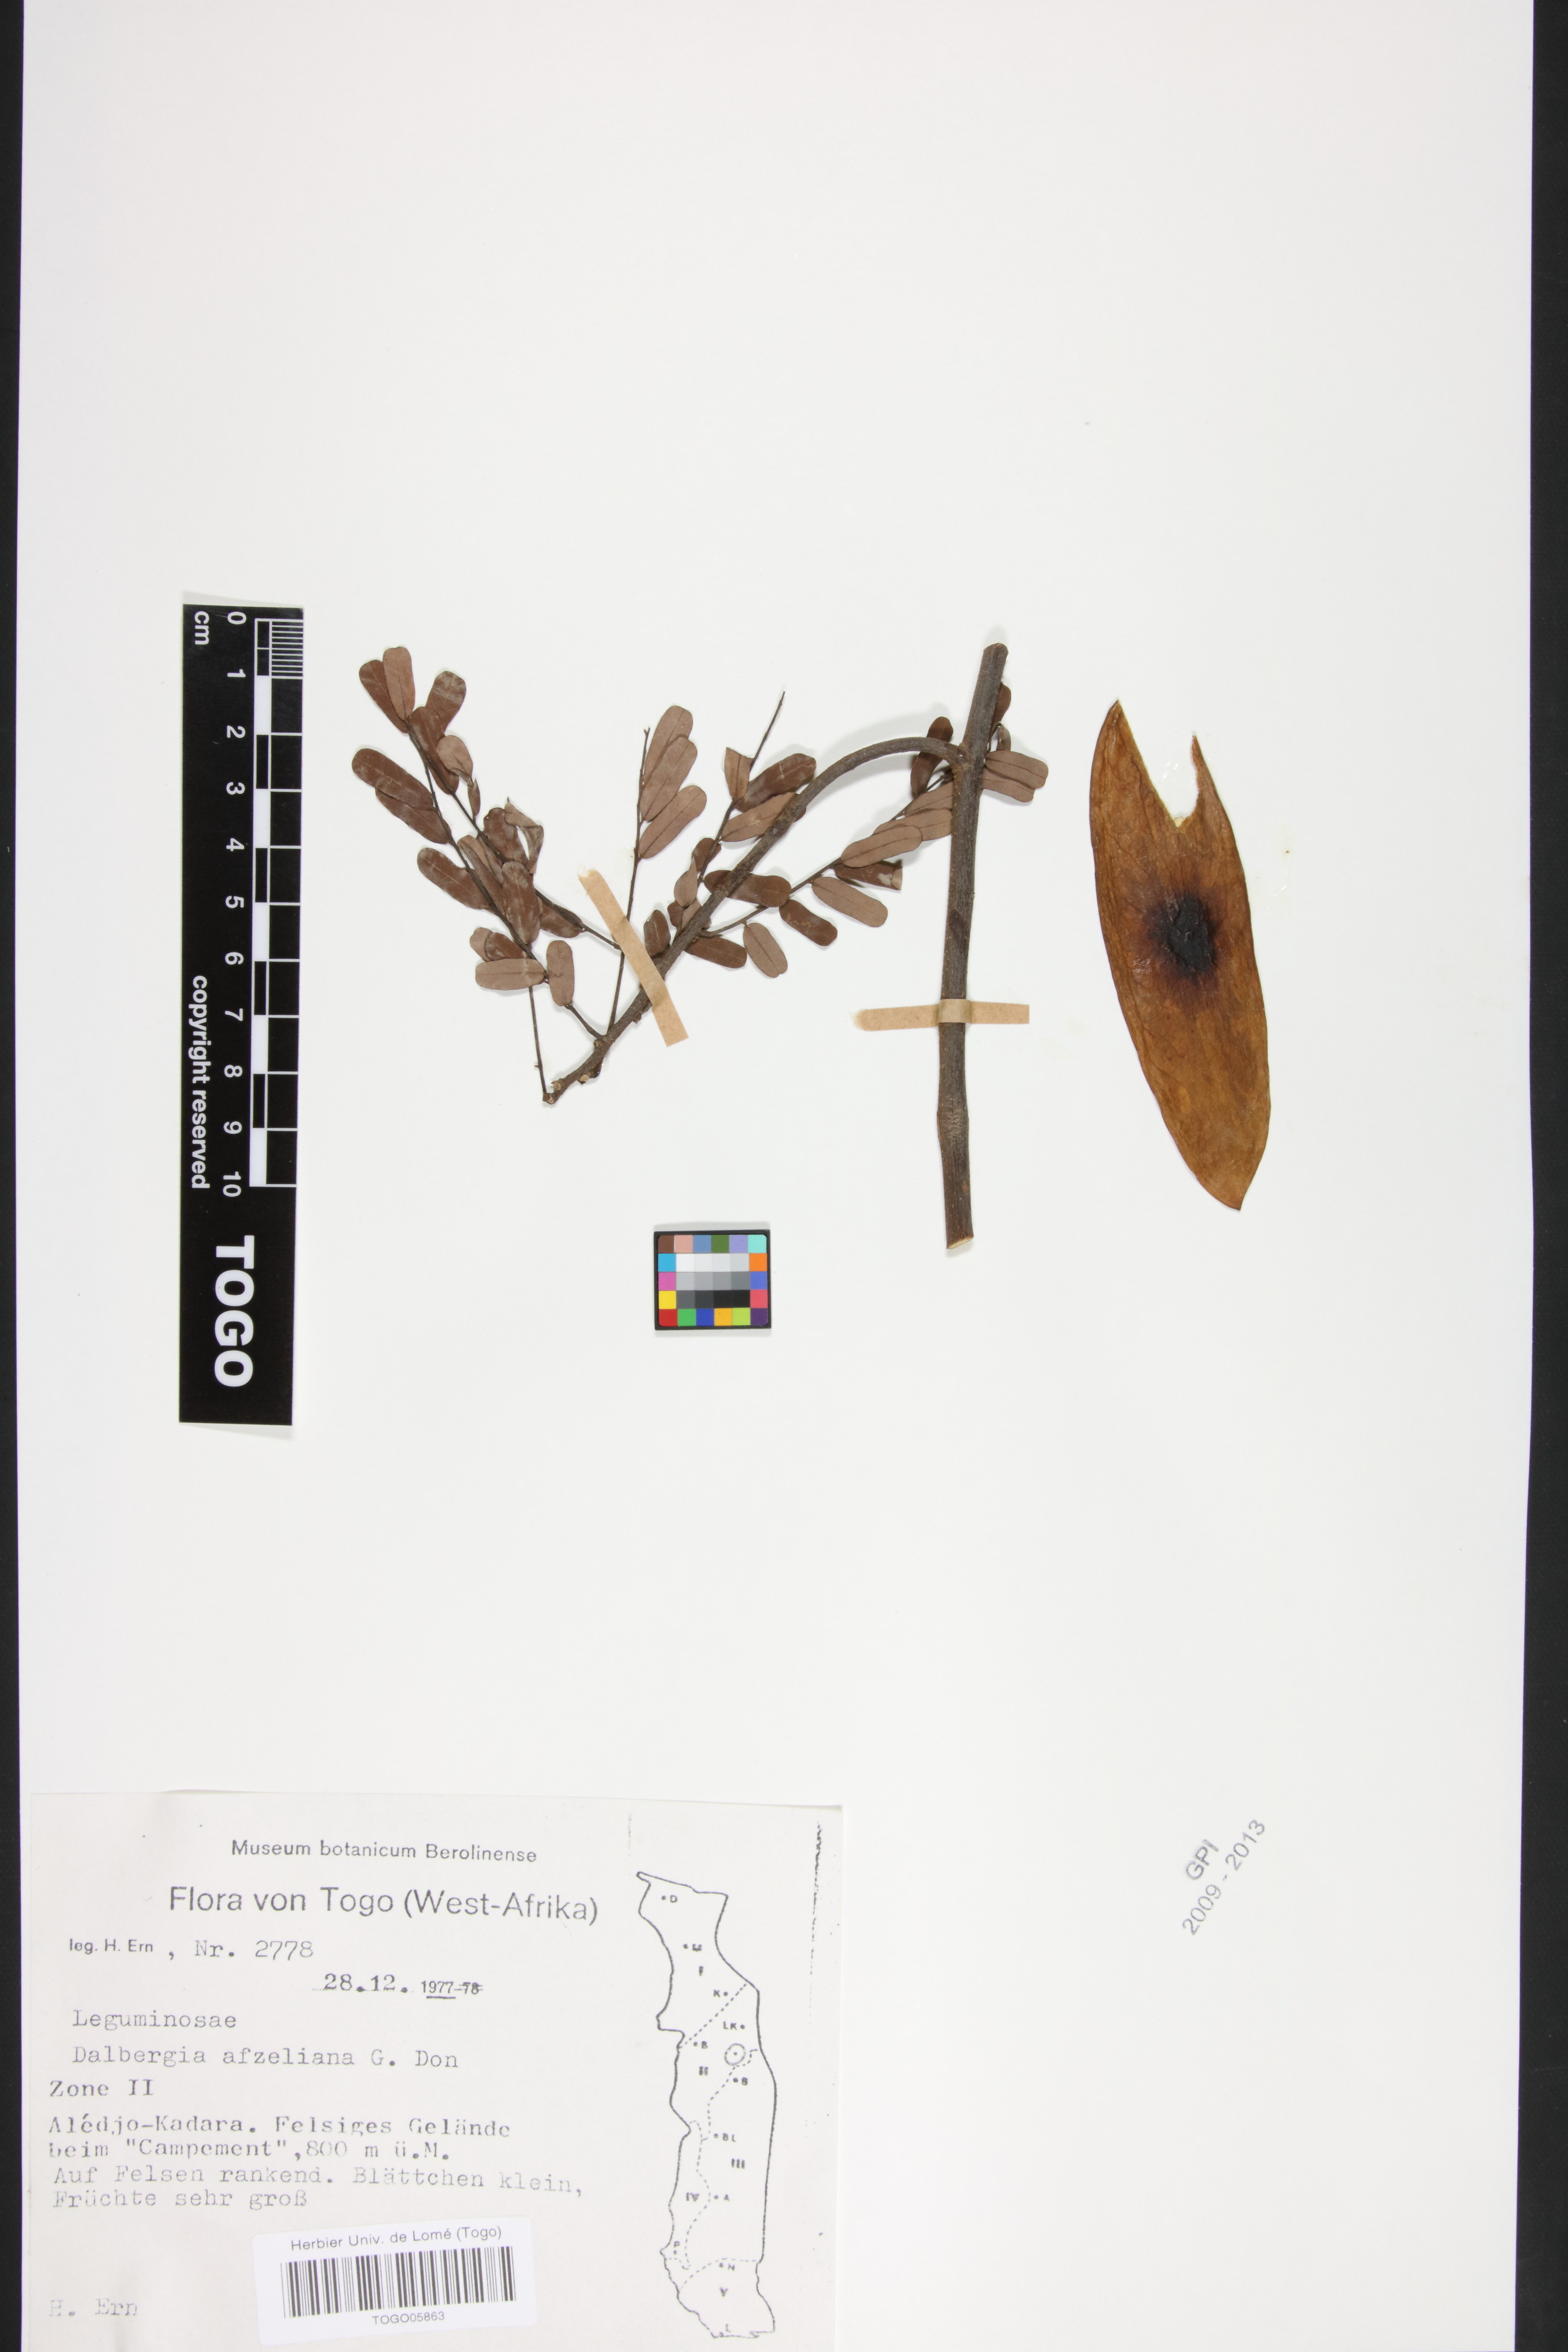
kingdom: Plantae
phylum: Tracheophyta
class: Magnoliopsida
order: Fabales
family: Fabaceae
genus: Dalbergia
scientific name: Dalbergia afzeliana
